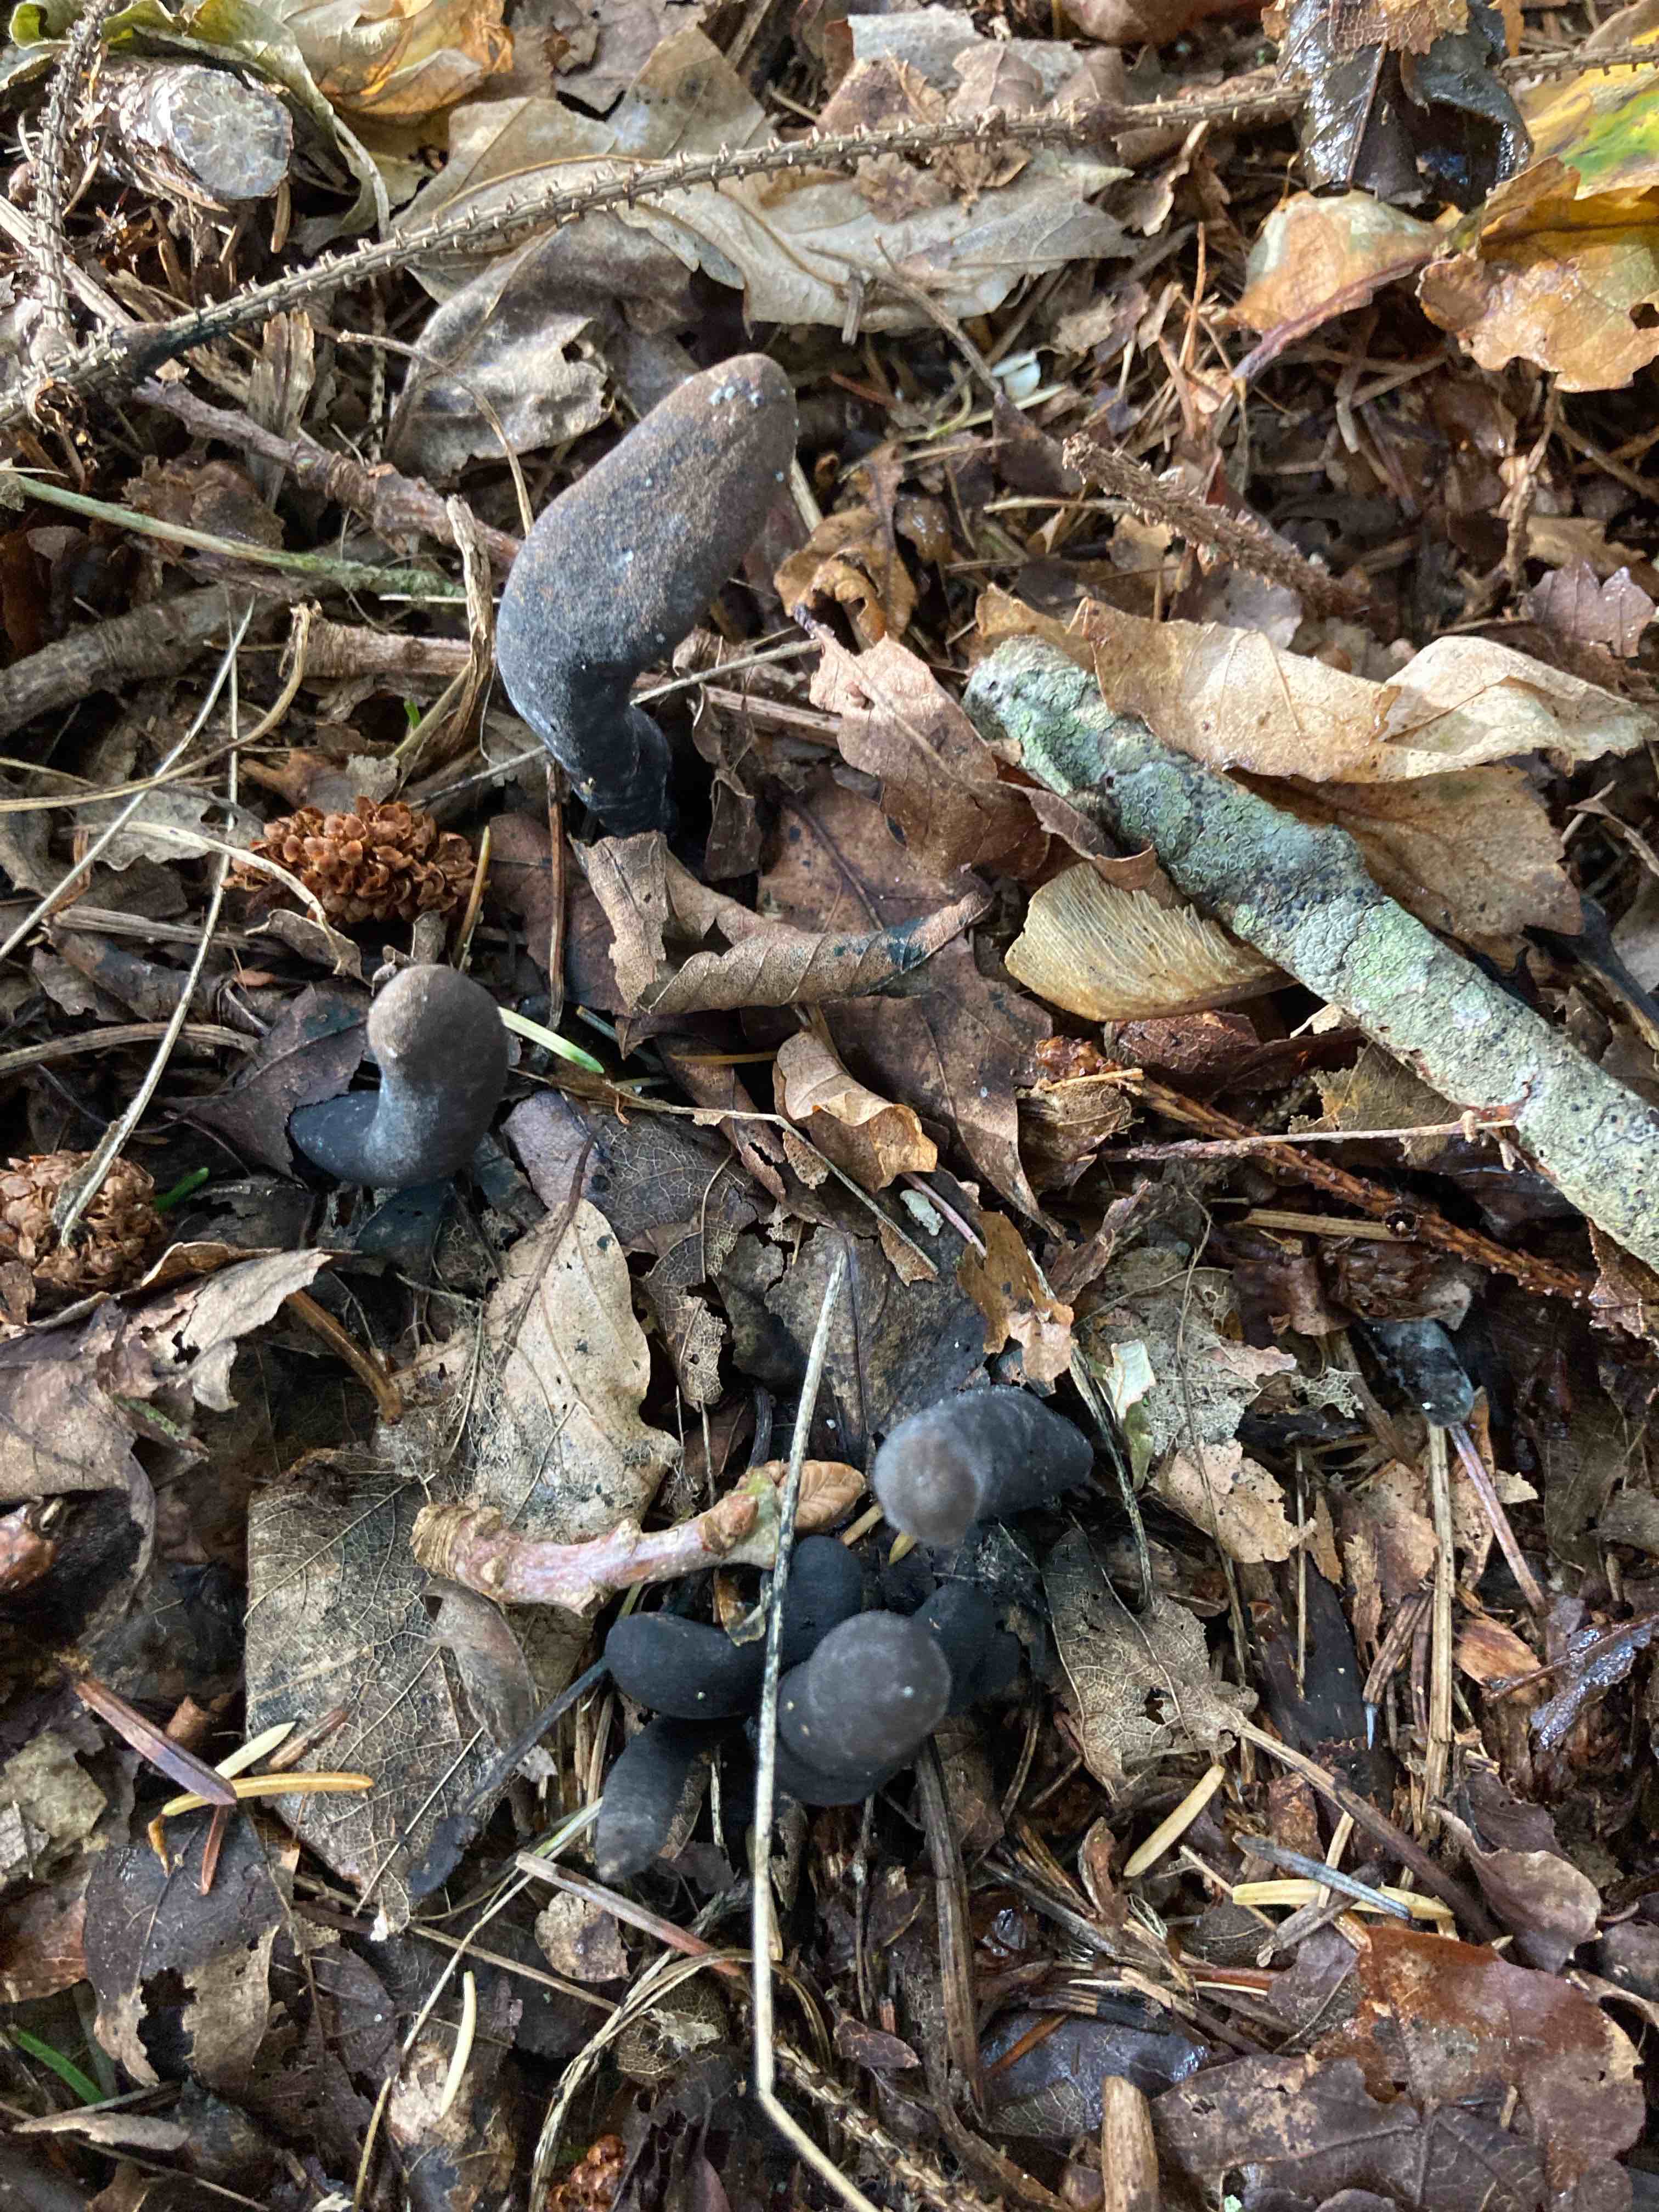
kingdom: Fungi
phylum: Ascomycota
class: Sordariomycetes
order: Xylariales
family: Xylariaceae
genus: Xylaria
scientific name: Xylaria polymorpha
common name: kølle-stødsvamp
